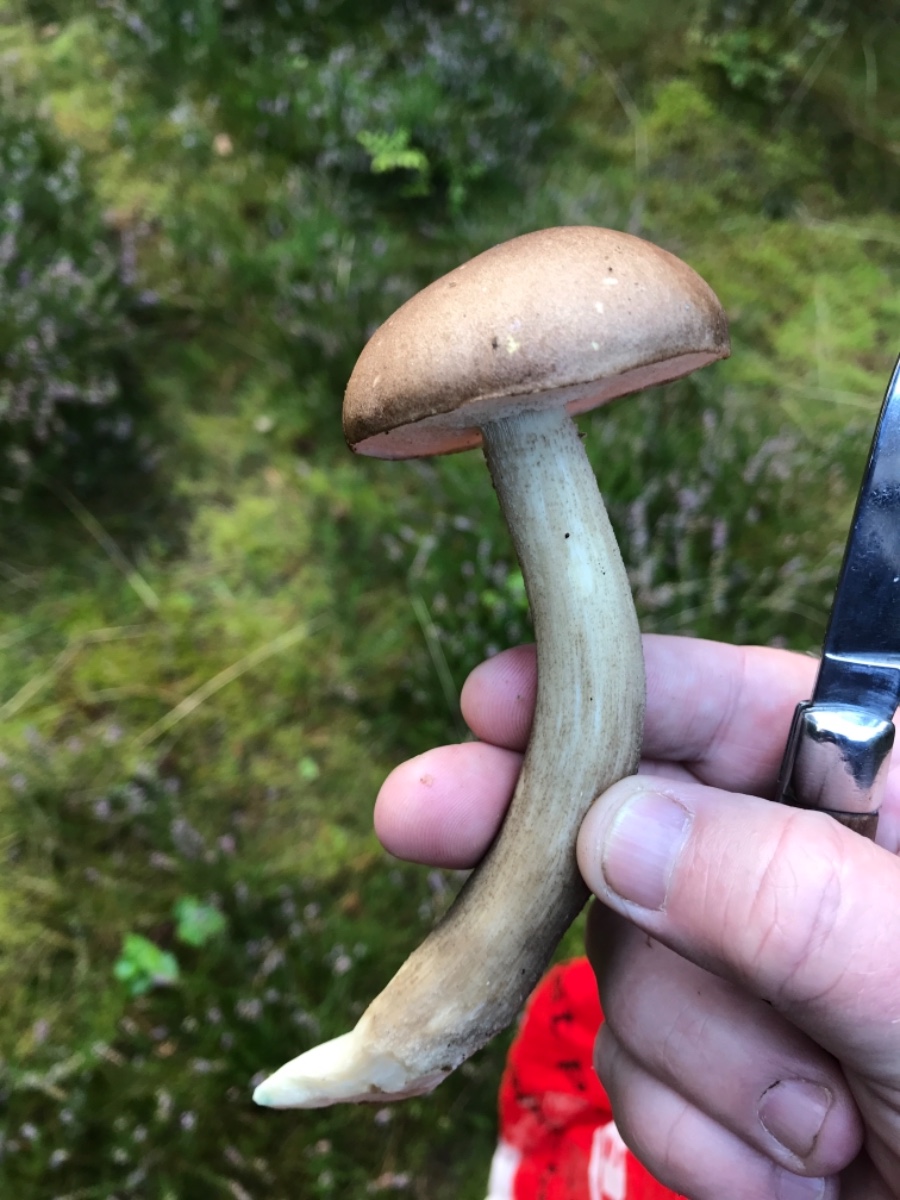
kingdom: Fungi
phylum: Basidiomycota
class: Agaricomycetes
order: Boletales
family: Boletaceae
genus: Leccinum
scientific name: Leccinum
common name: skælrørhat
